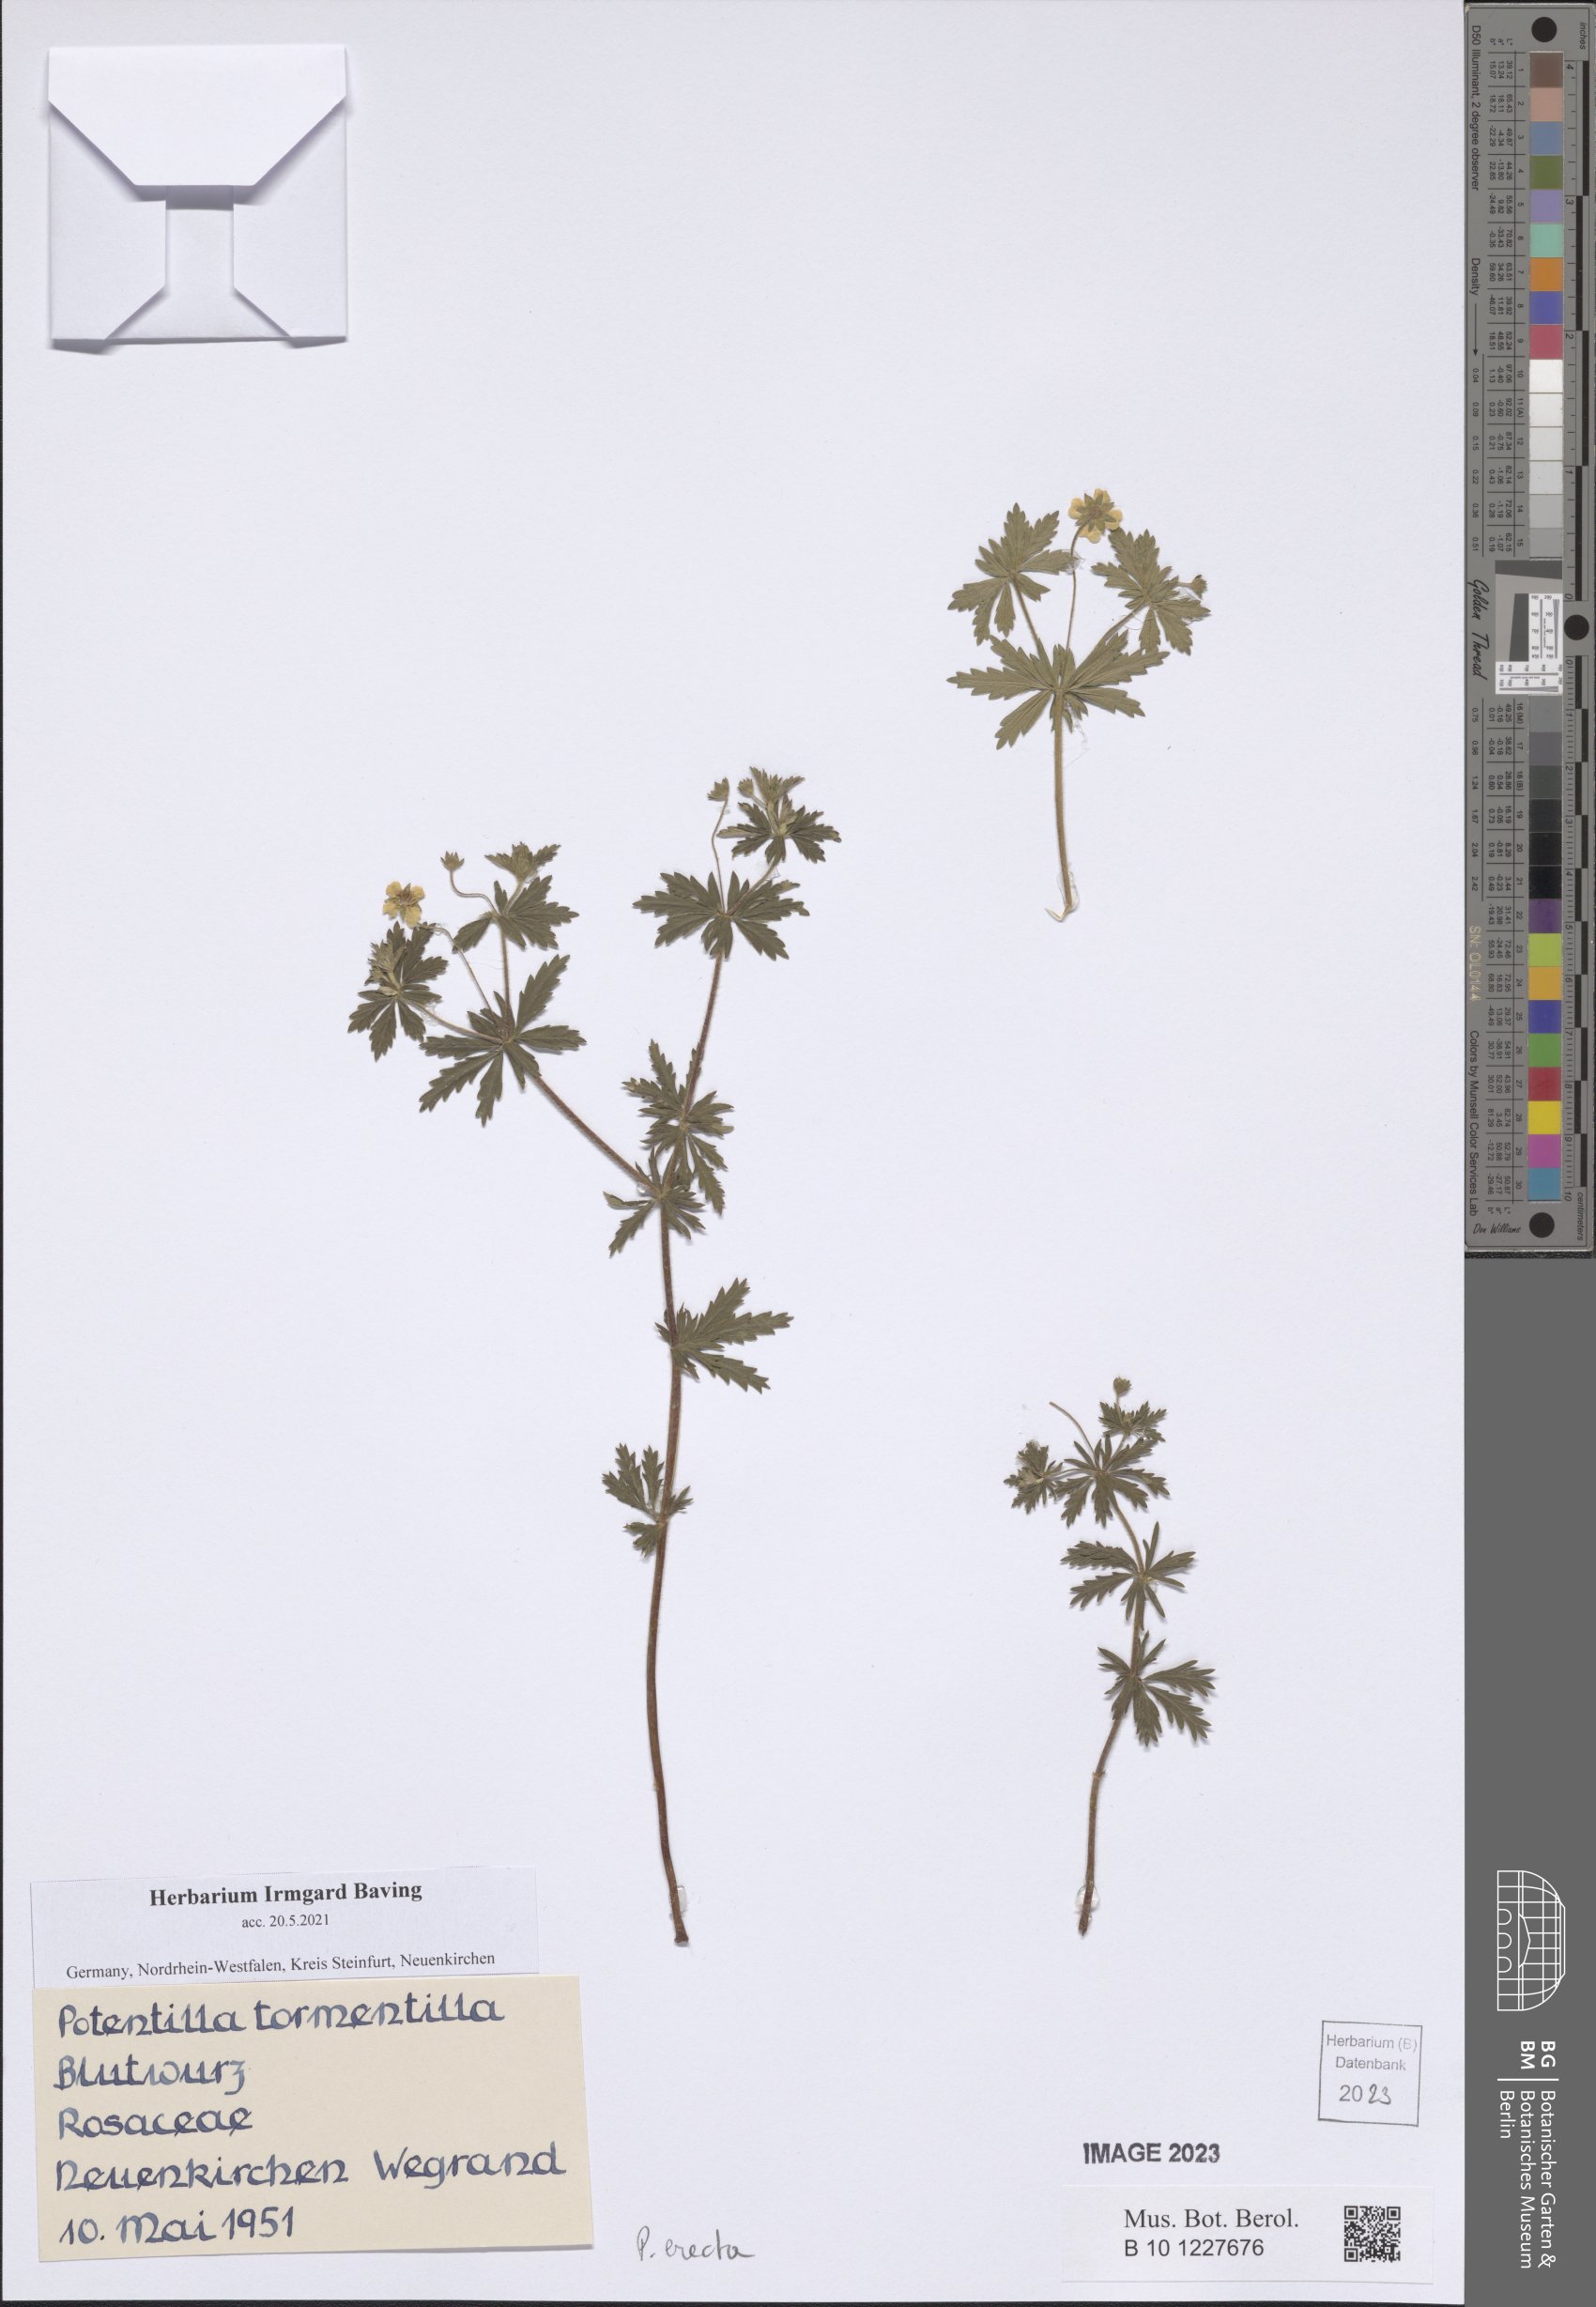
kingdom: Plantae
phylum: Tracheophyta
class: Magnoliopsida
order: Rosales
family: Rosaceae
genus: Potentilla
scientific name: Potentilla erecta
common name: Tormentil
